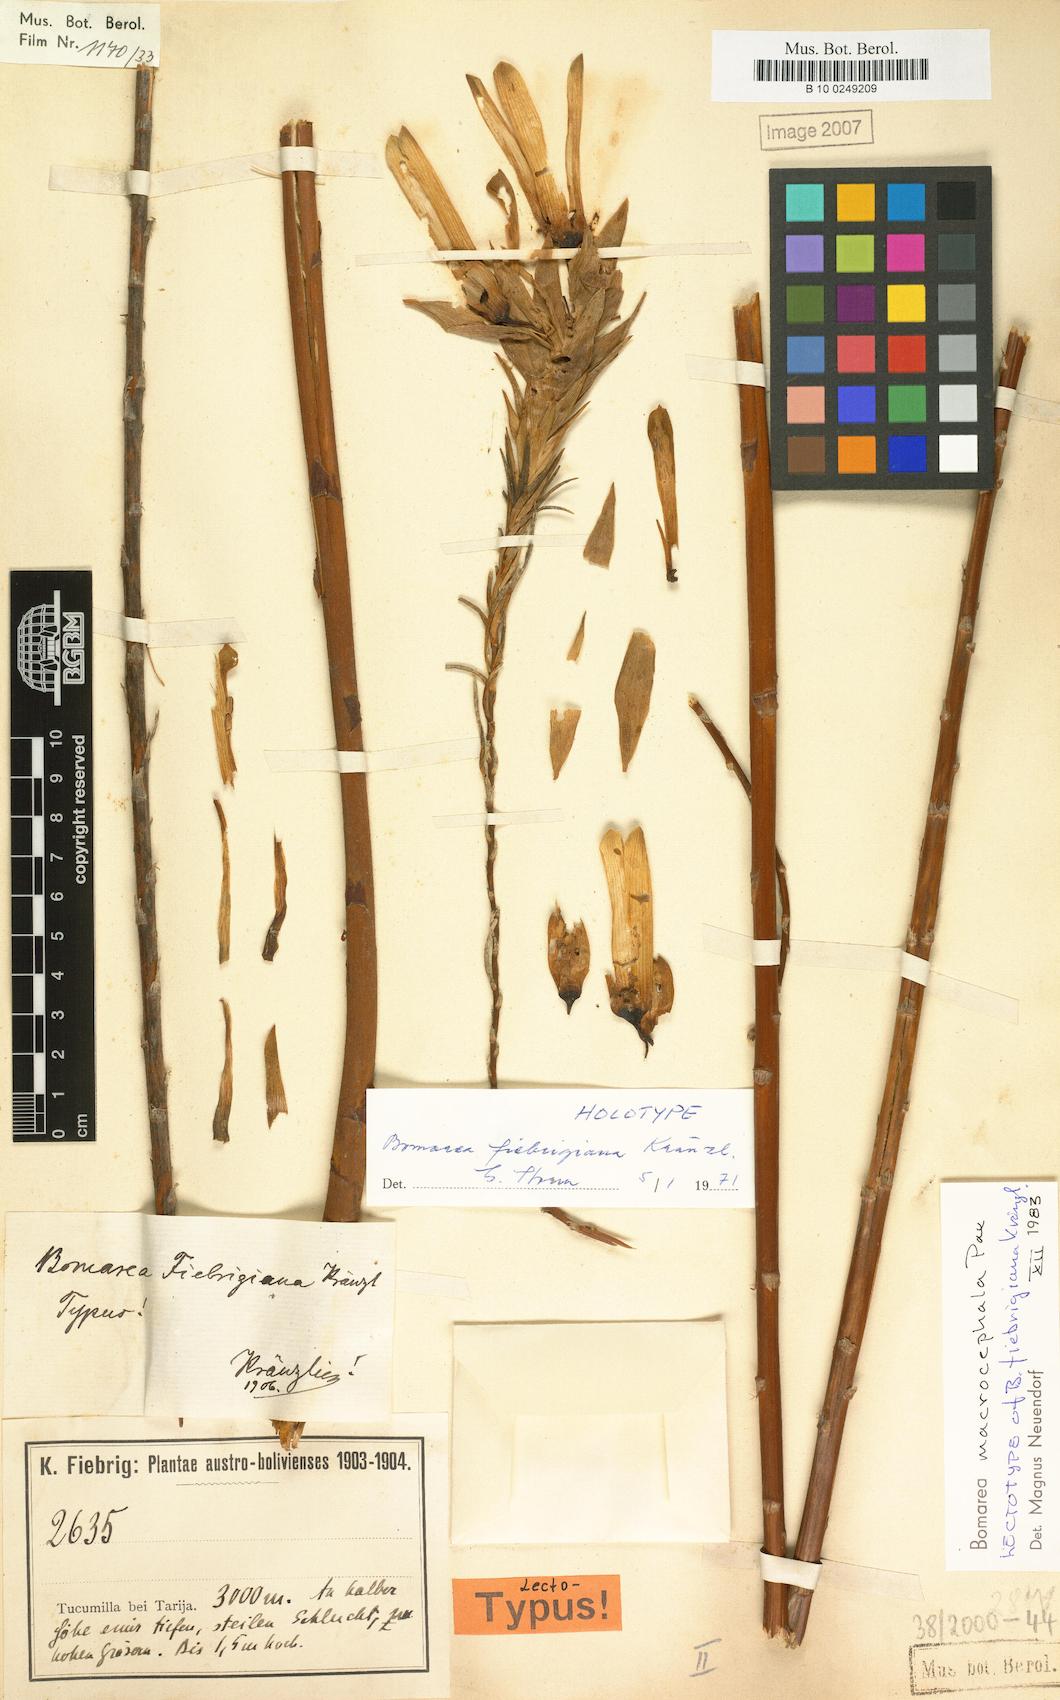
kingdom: Plantae
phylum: Tracheophyta
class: Liliopsida
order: Liliales
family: Alstroemeriaceae
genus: Bomarea
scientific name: Bomarea macrocephala
